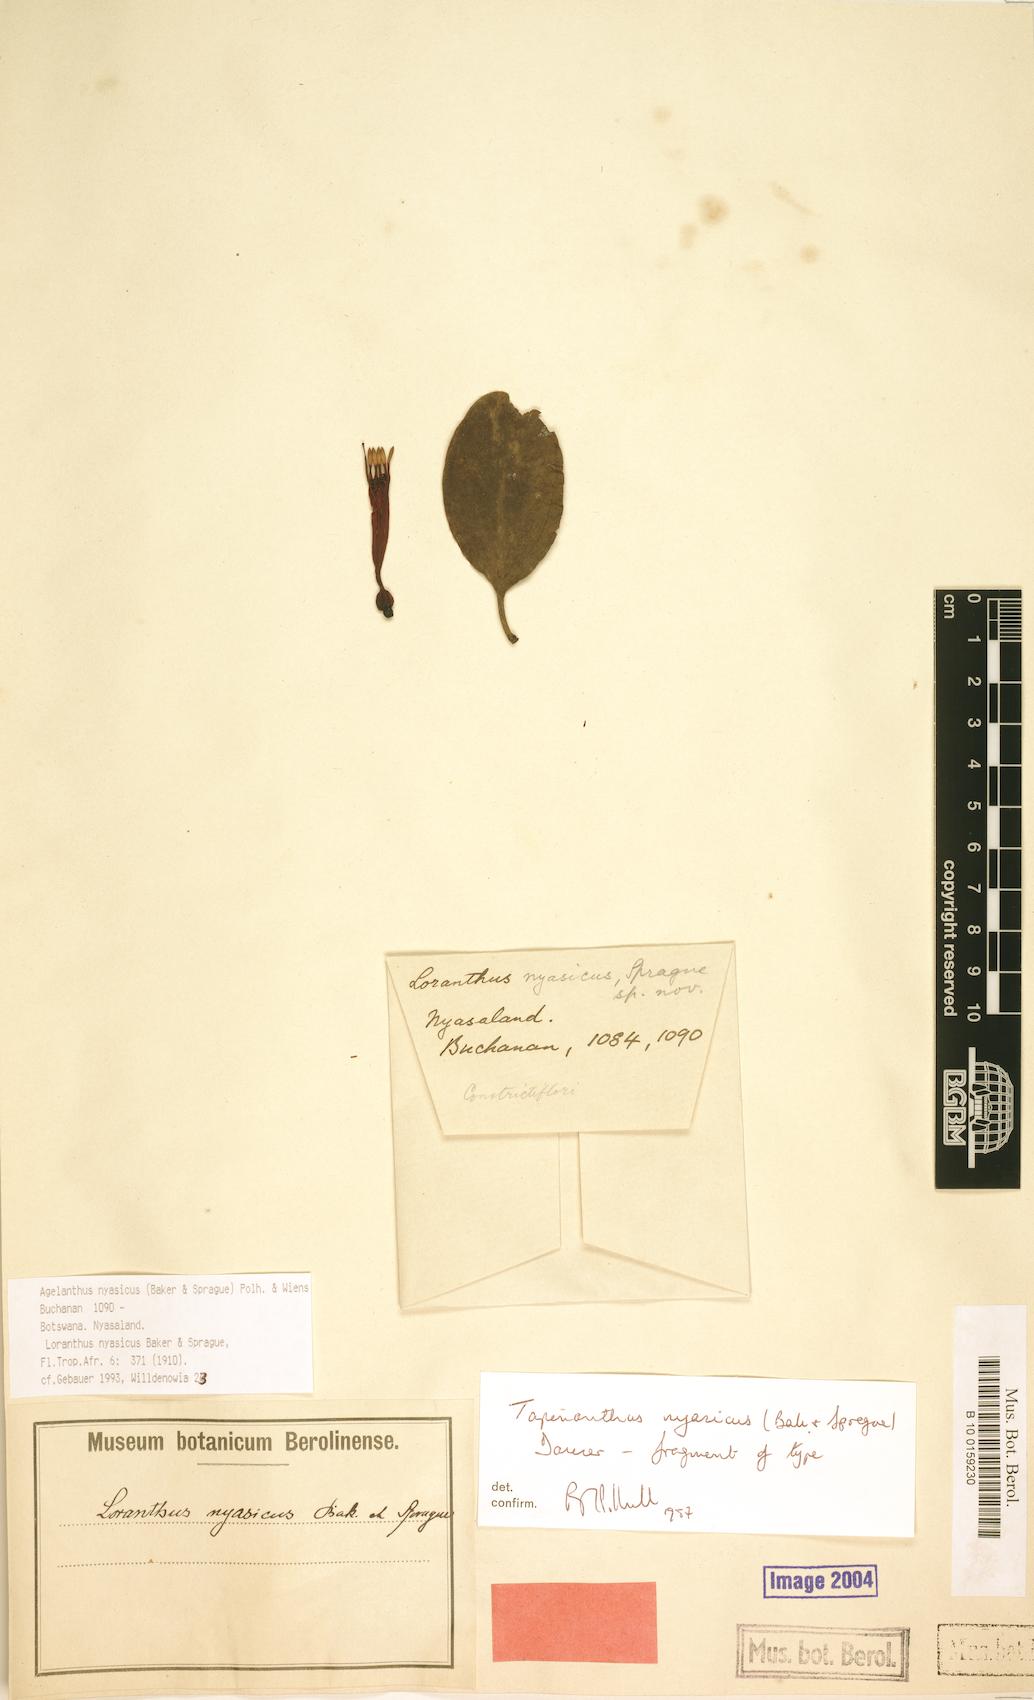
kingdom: Plantae
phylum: Tracheophyta
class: Magnoliopsida
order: Santalales
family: Loranthaceae
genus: Agelanthus
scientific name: Agelanthus nyasicus
